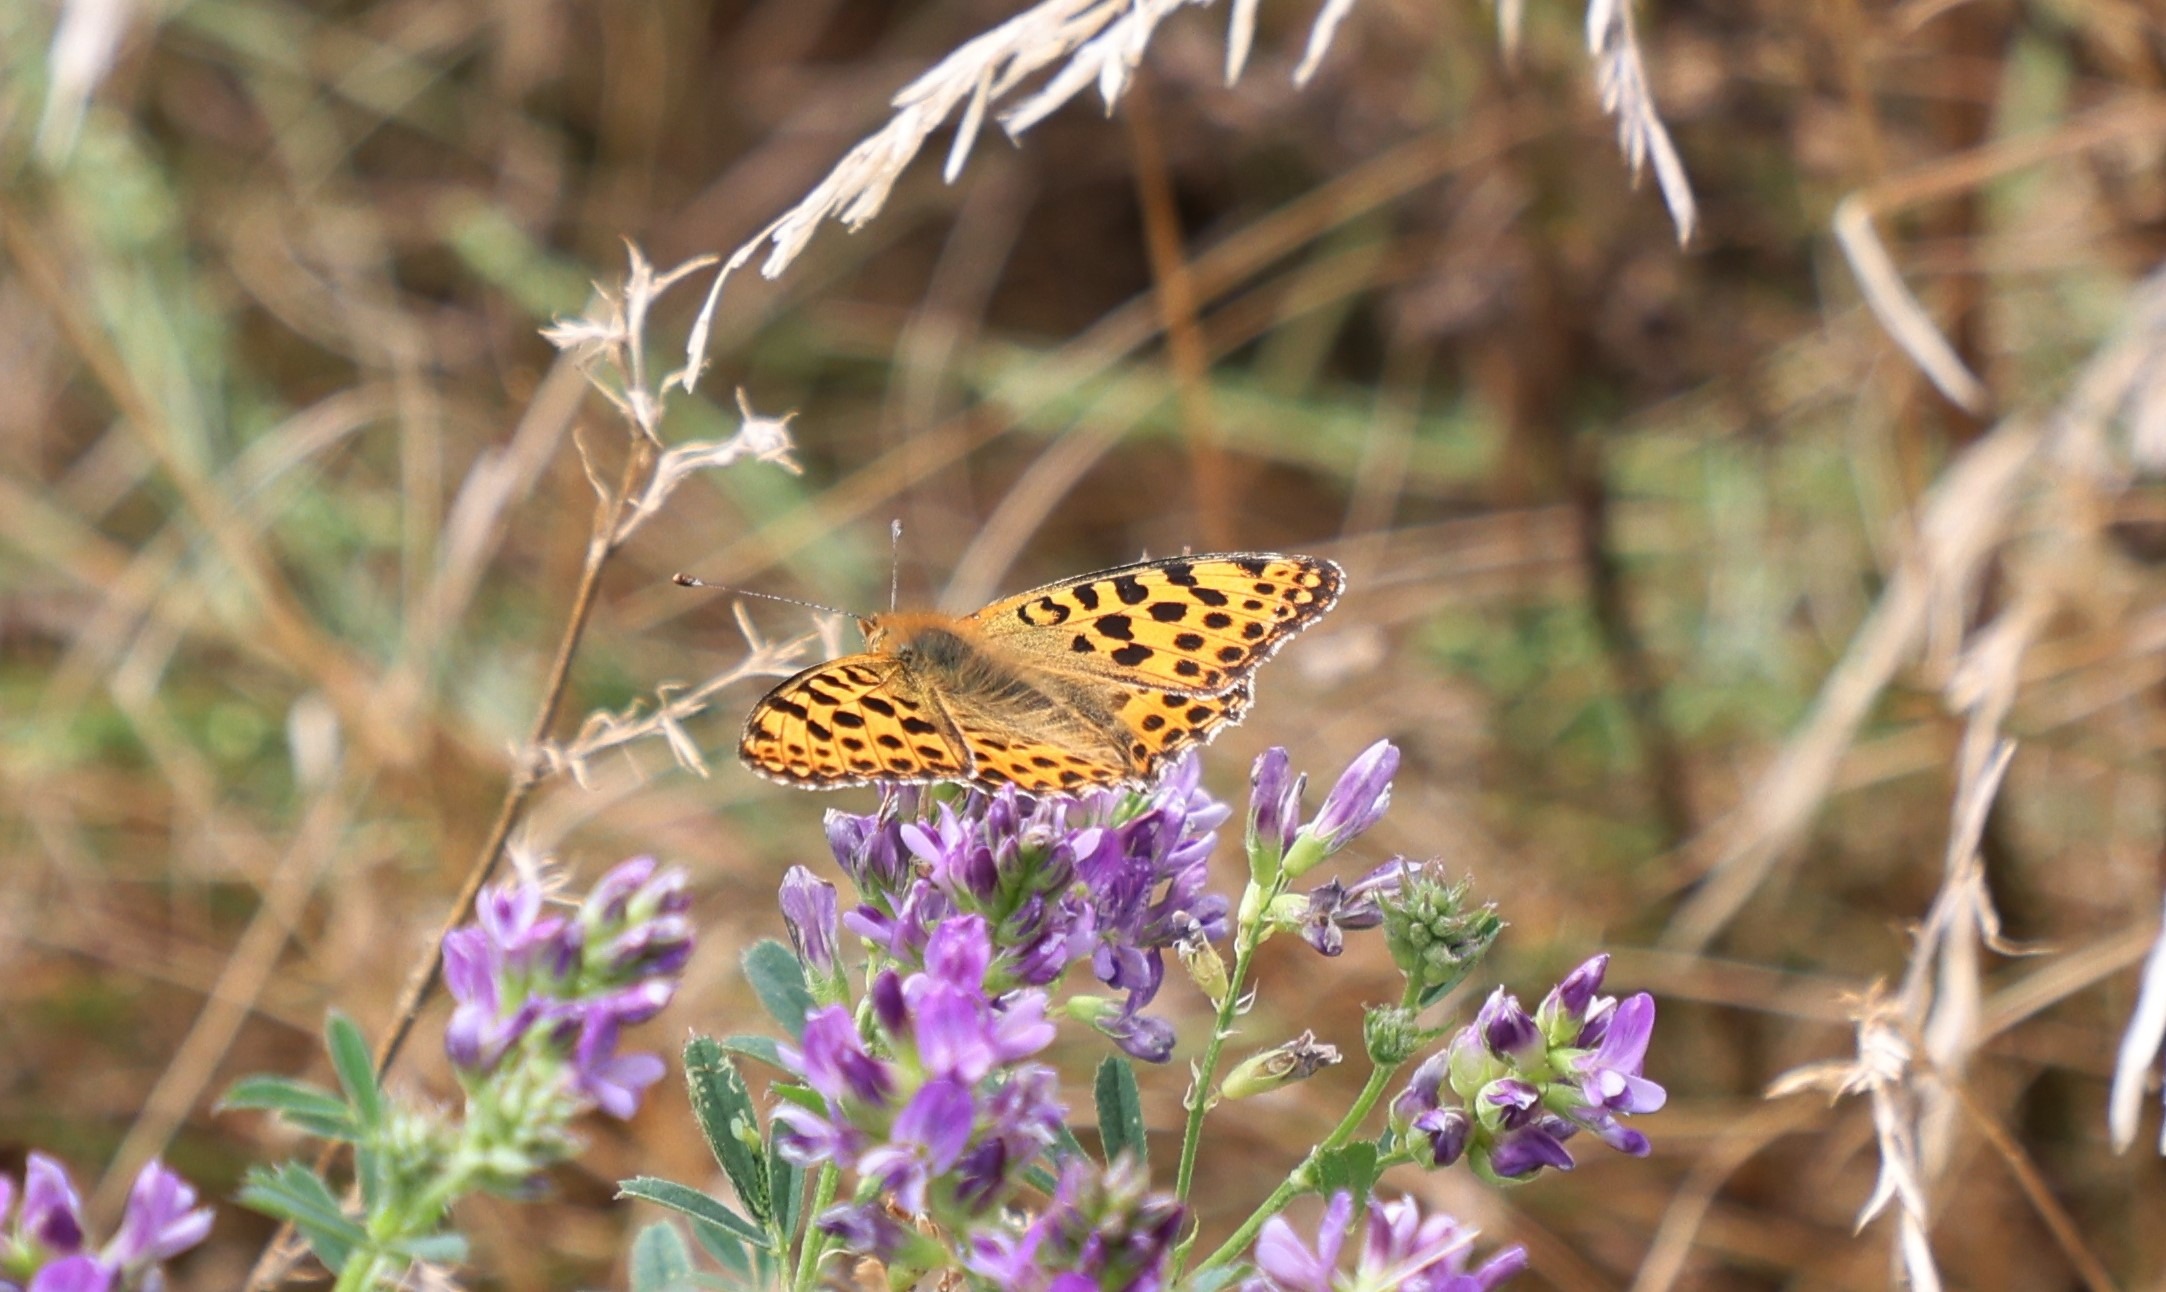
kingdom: Animalia
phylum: Arthropoda
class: Insecta
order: Lepidoptera
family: Nymphalidae
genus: Issoria
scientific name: Issoria lathonia
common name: Storplettet perlemorsommerfugl
